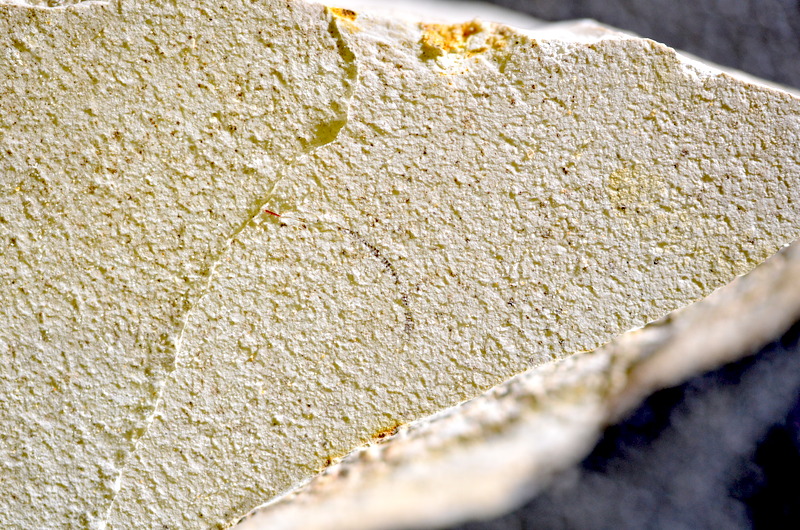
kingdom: Animalia
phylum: Chordata
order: Salmoniformes
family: Orthogonikleithridae
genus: Orthogonikleithrus
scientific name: Orthogonikleithrus hoelli
